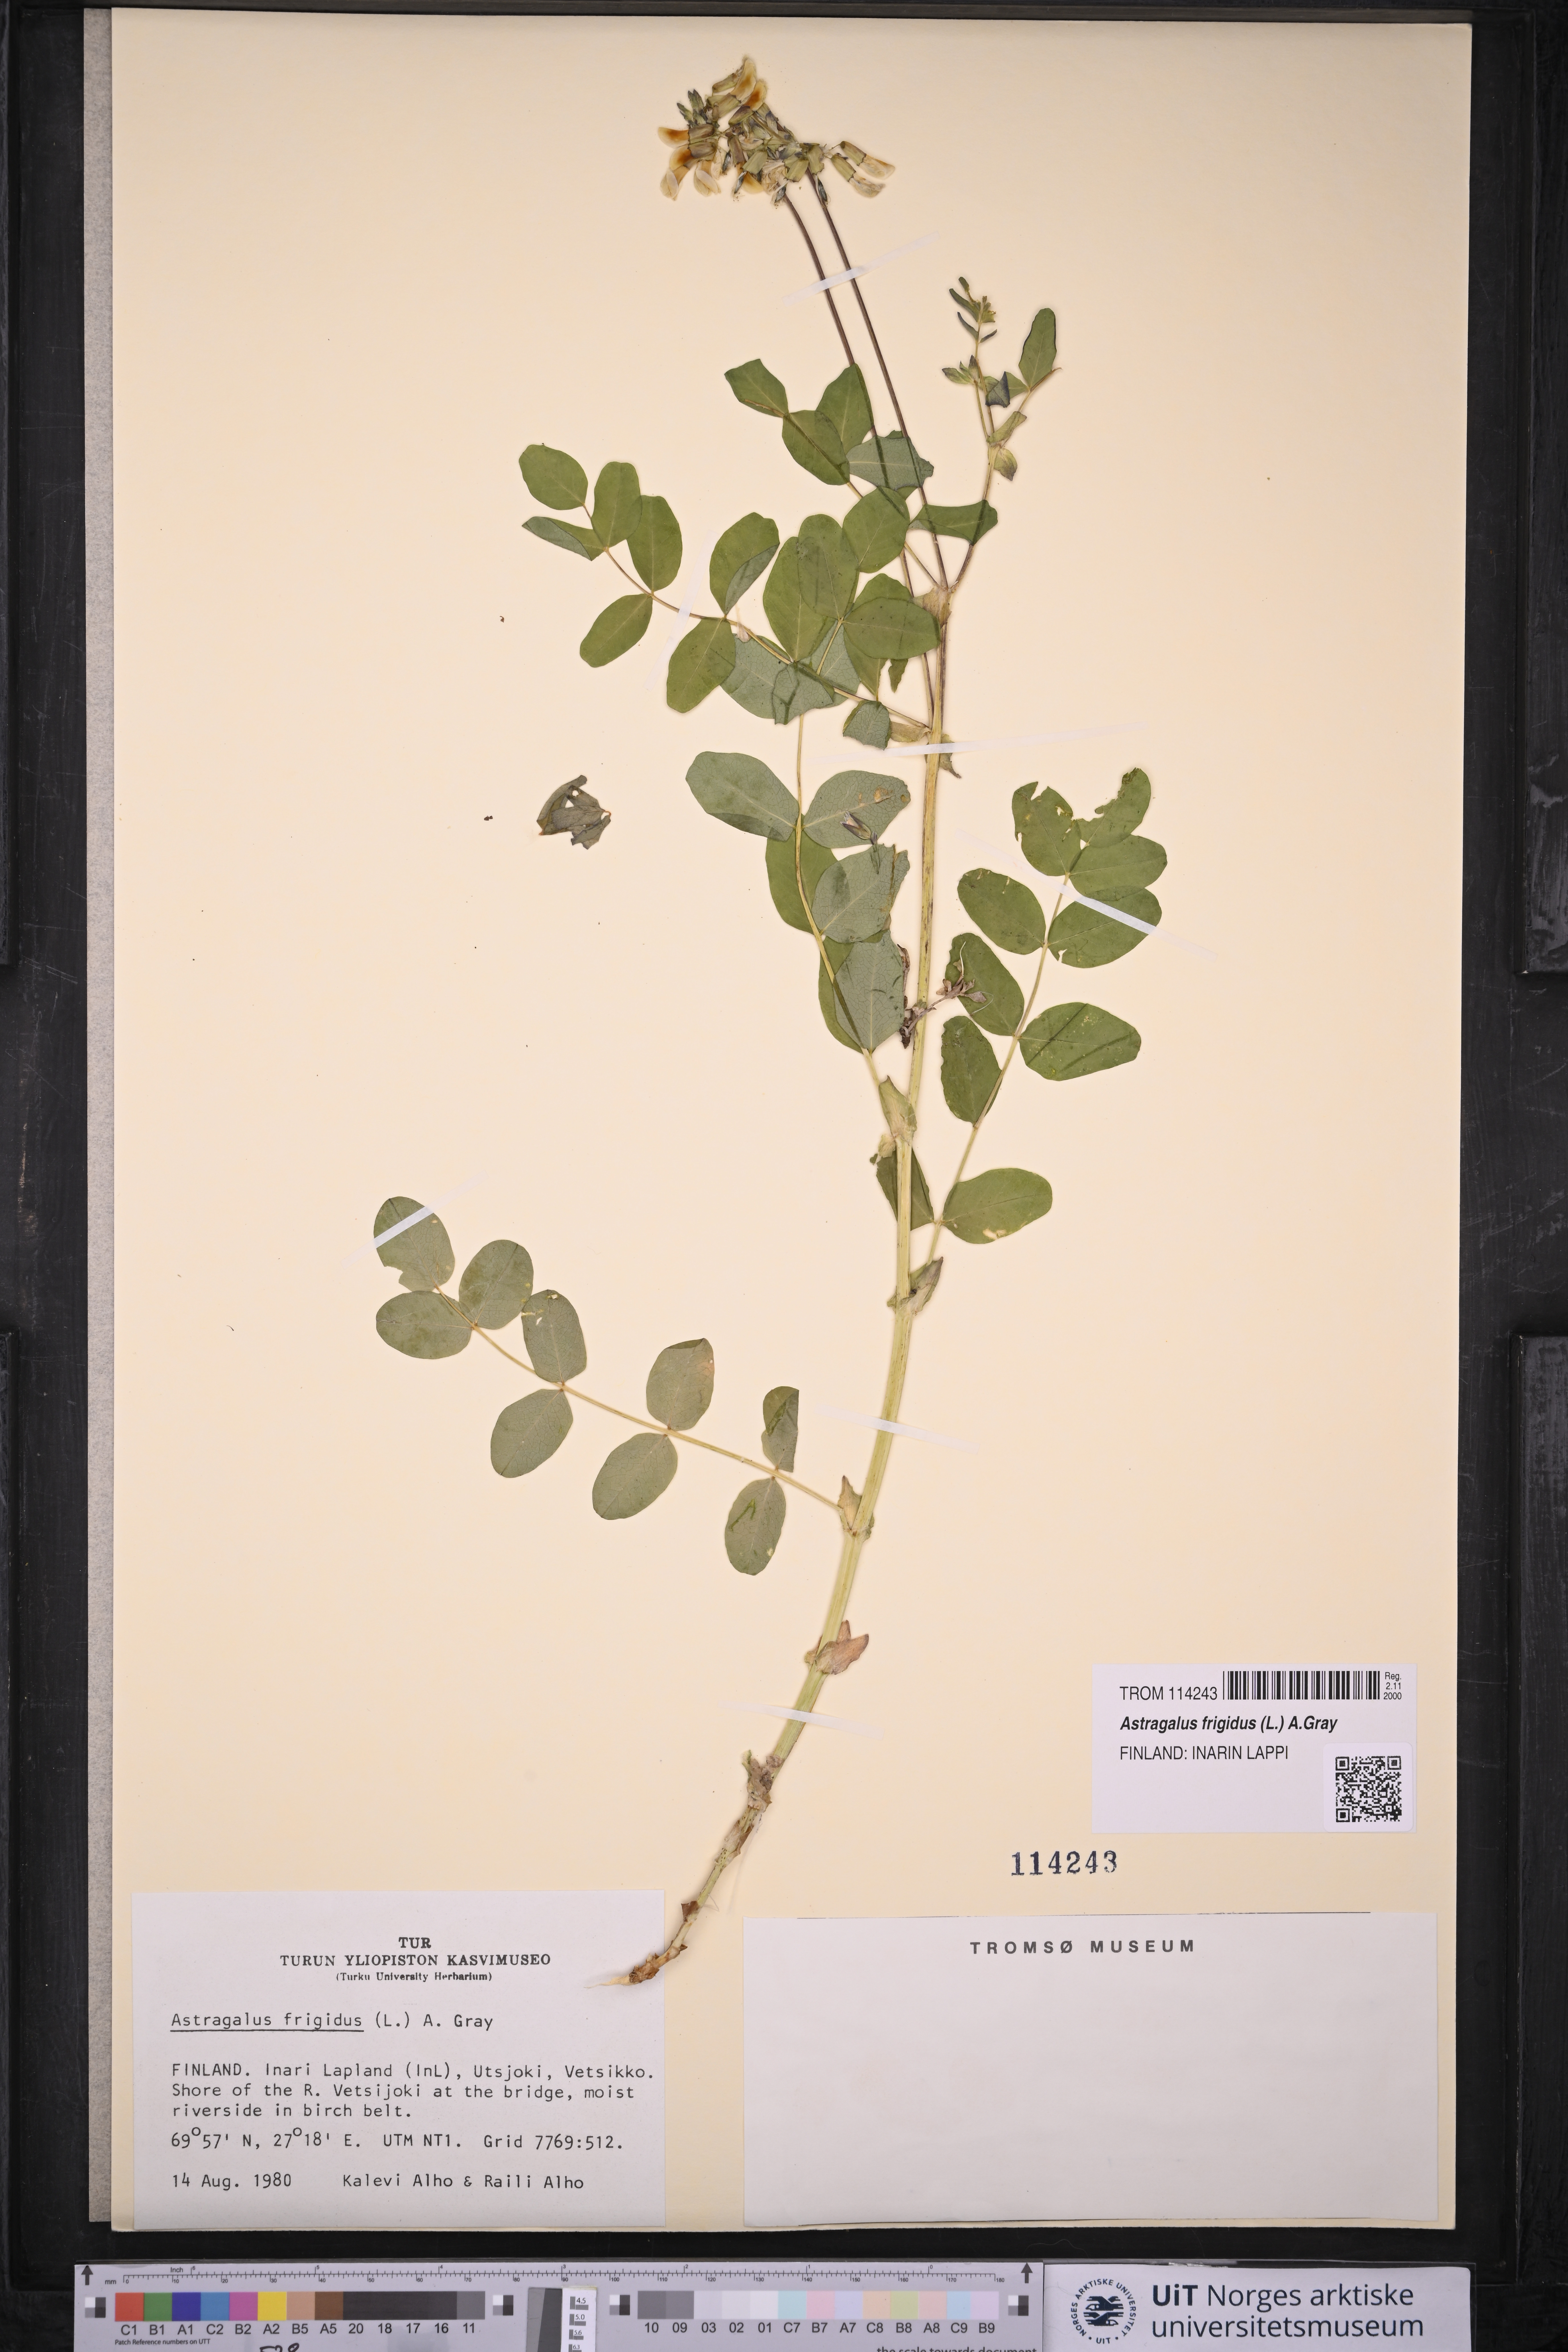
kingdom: Plantae
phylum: Tracheophyta
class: Magnoliopsida
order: Fabales
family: Fabaceae
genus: Astragalus
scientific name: Astragalus frigidus
